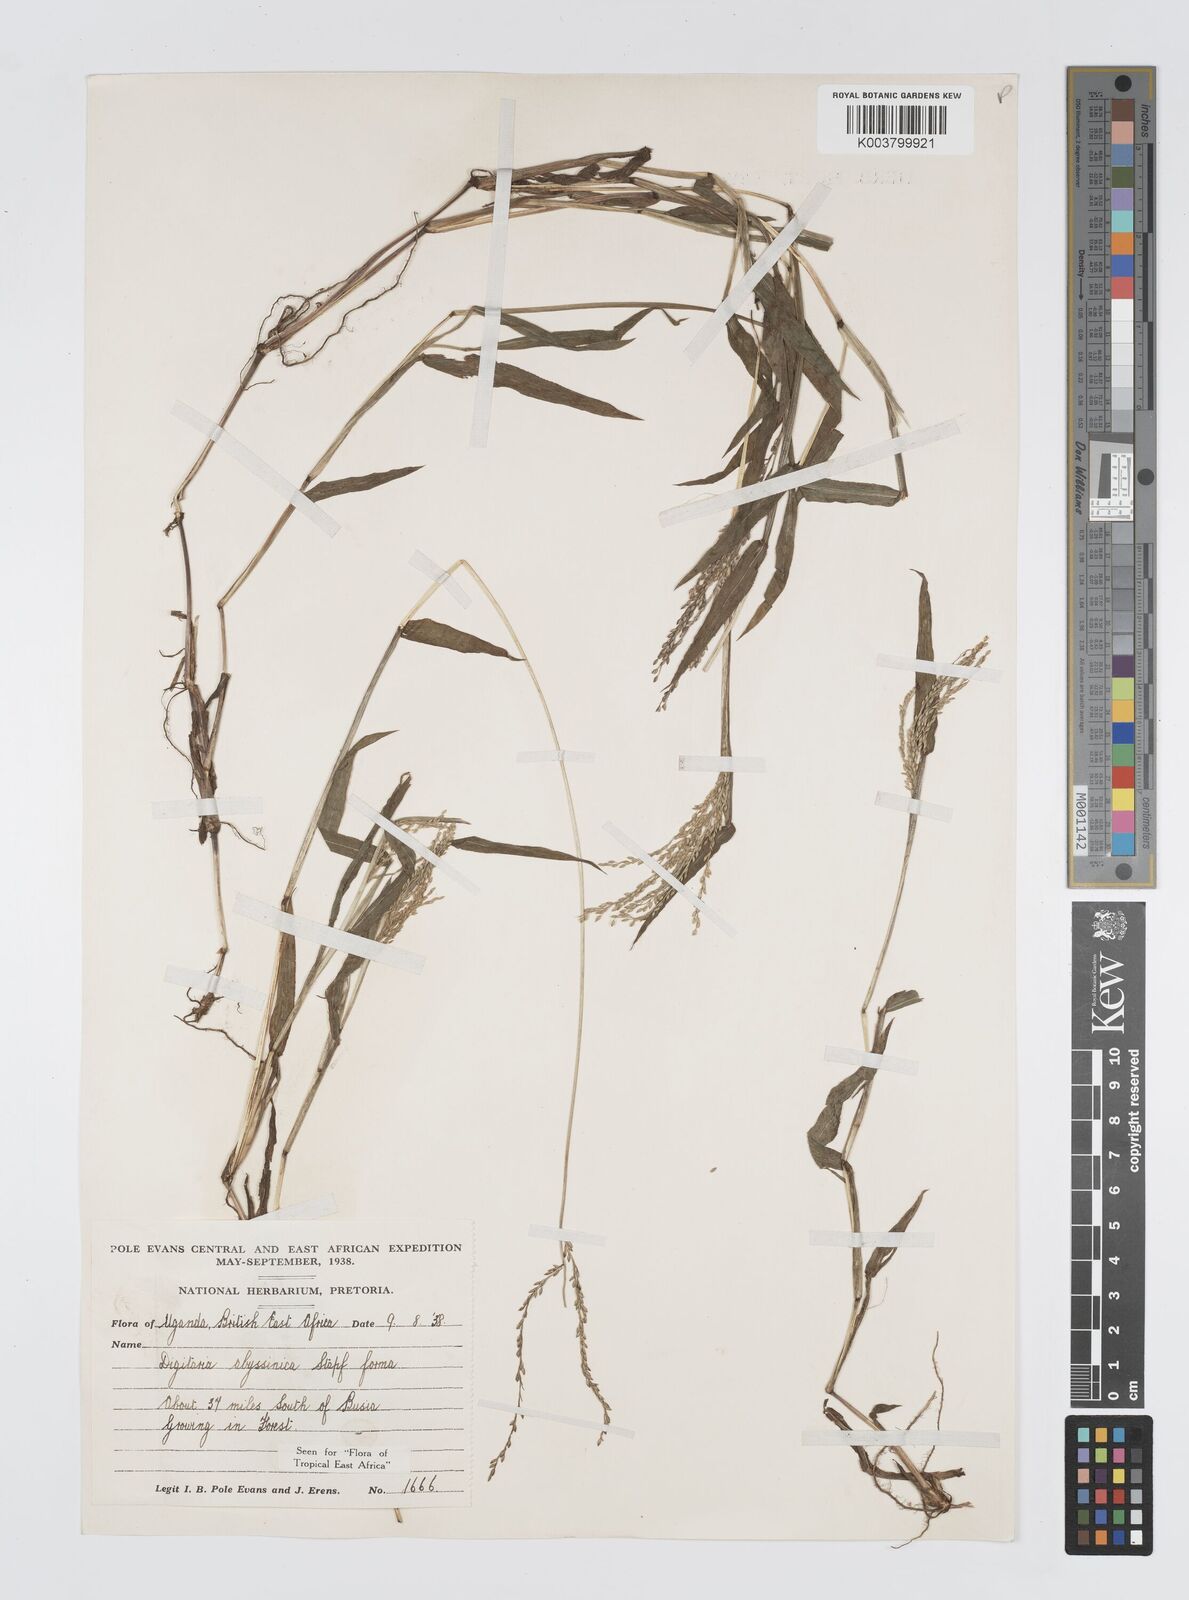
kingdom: Plantae
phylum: Tracheophyta
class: Liliopsida
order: Poales
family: Poaceae
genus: Digitaria
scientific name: Digitaria abyssinica
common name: African couchgrass
